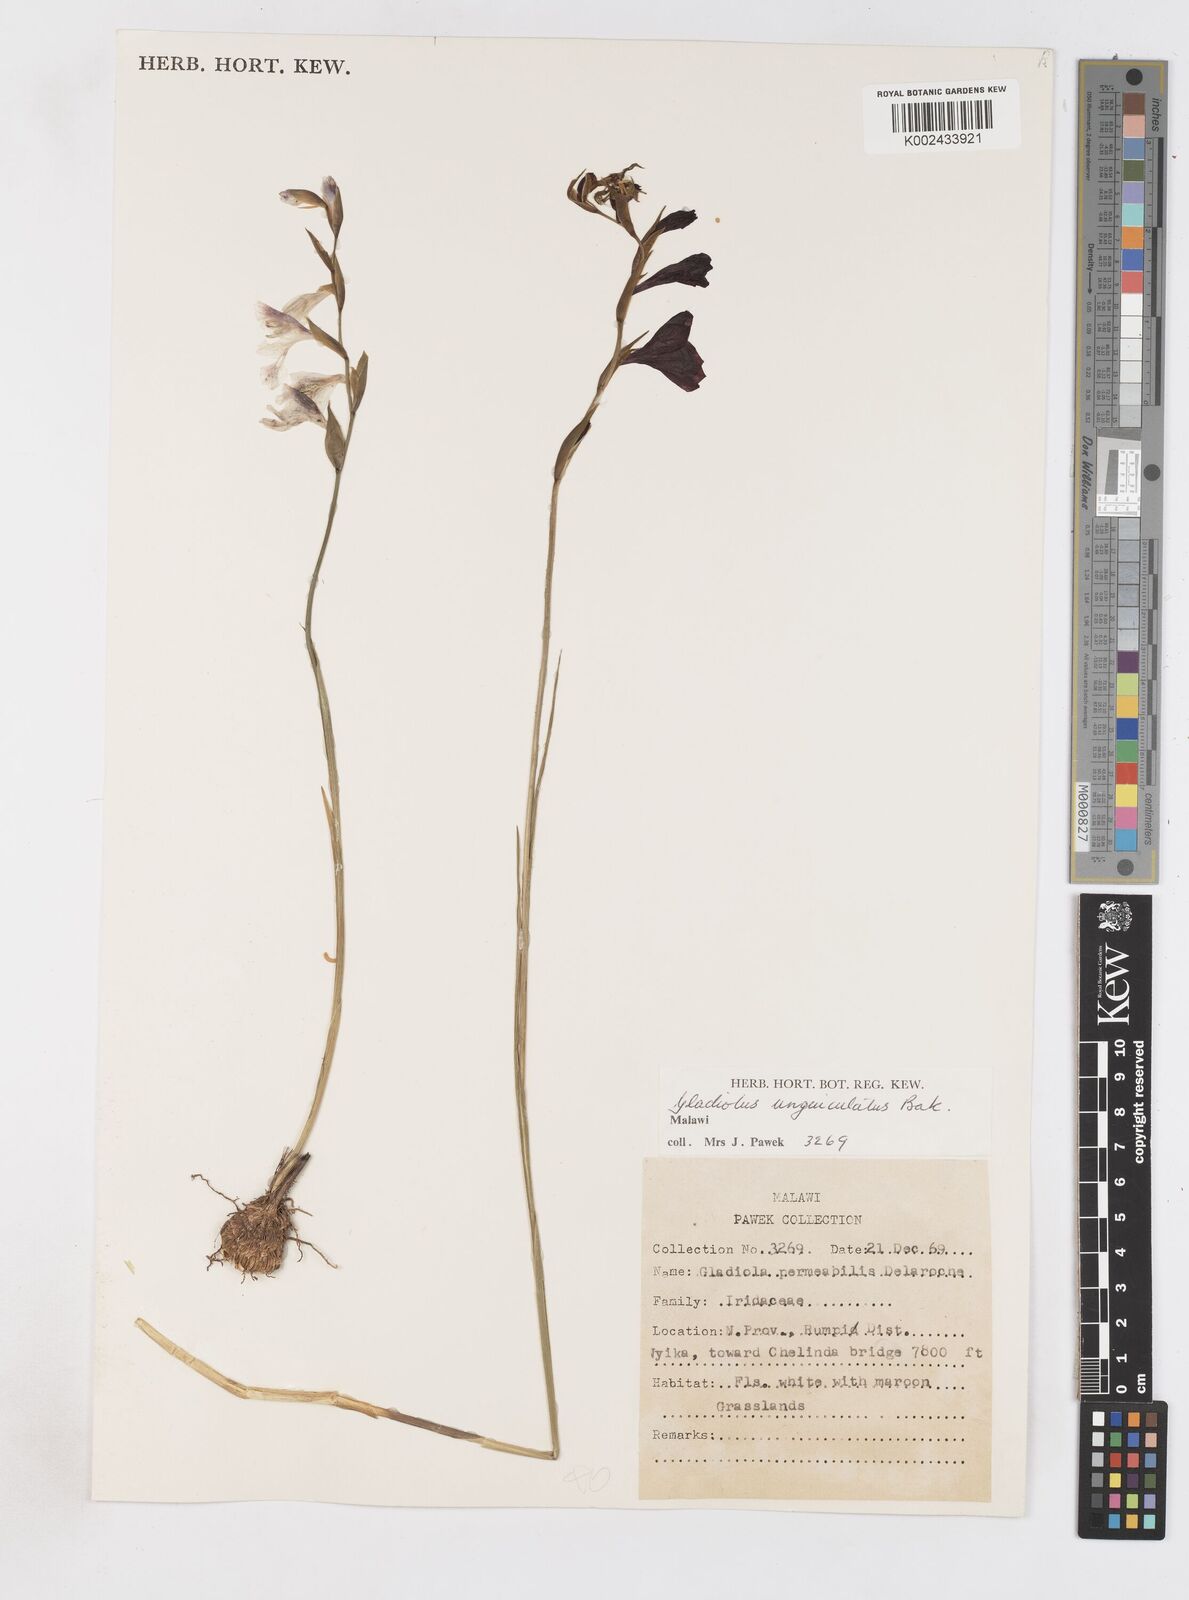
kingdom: Plantae
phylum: Tracheophyta
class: Liliopsida
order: Asparagales
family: Iridaceae
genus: Gladiolus
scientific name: Gladiolus atropurpureus
